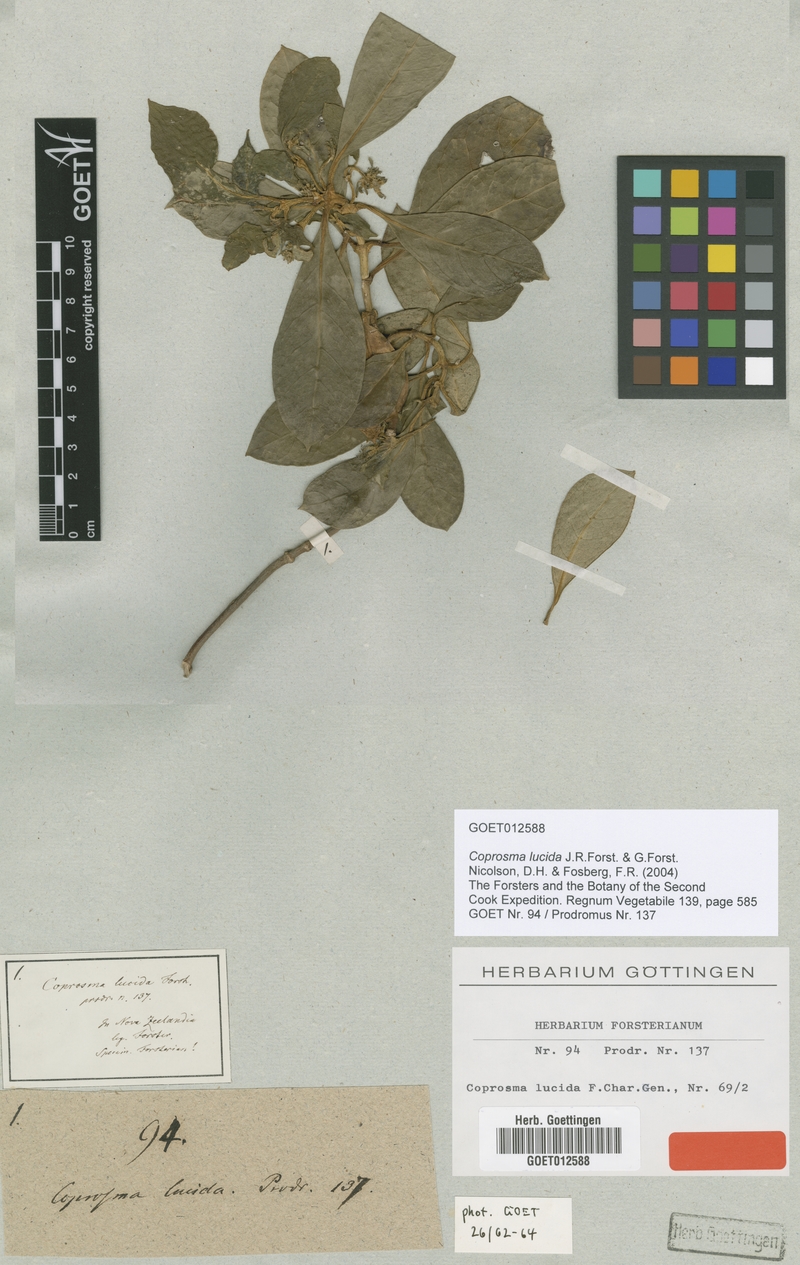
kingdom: Plantae
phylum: Tracheophyta
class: Magnoliopsida
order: Gentianales
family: Rubiaceae
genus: Coprosma
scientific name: Coprosma lucida
